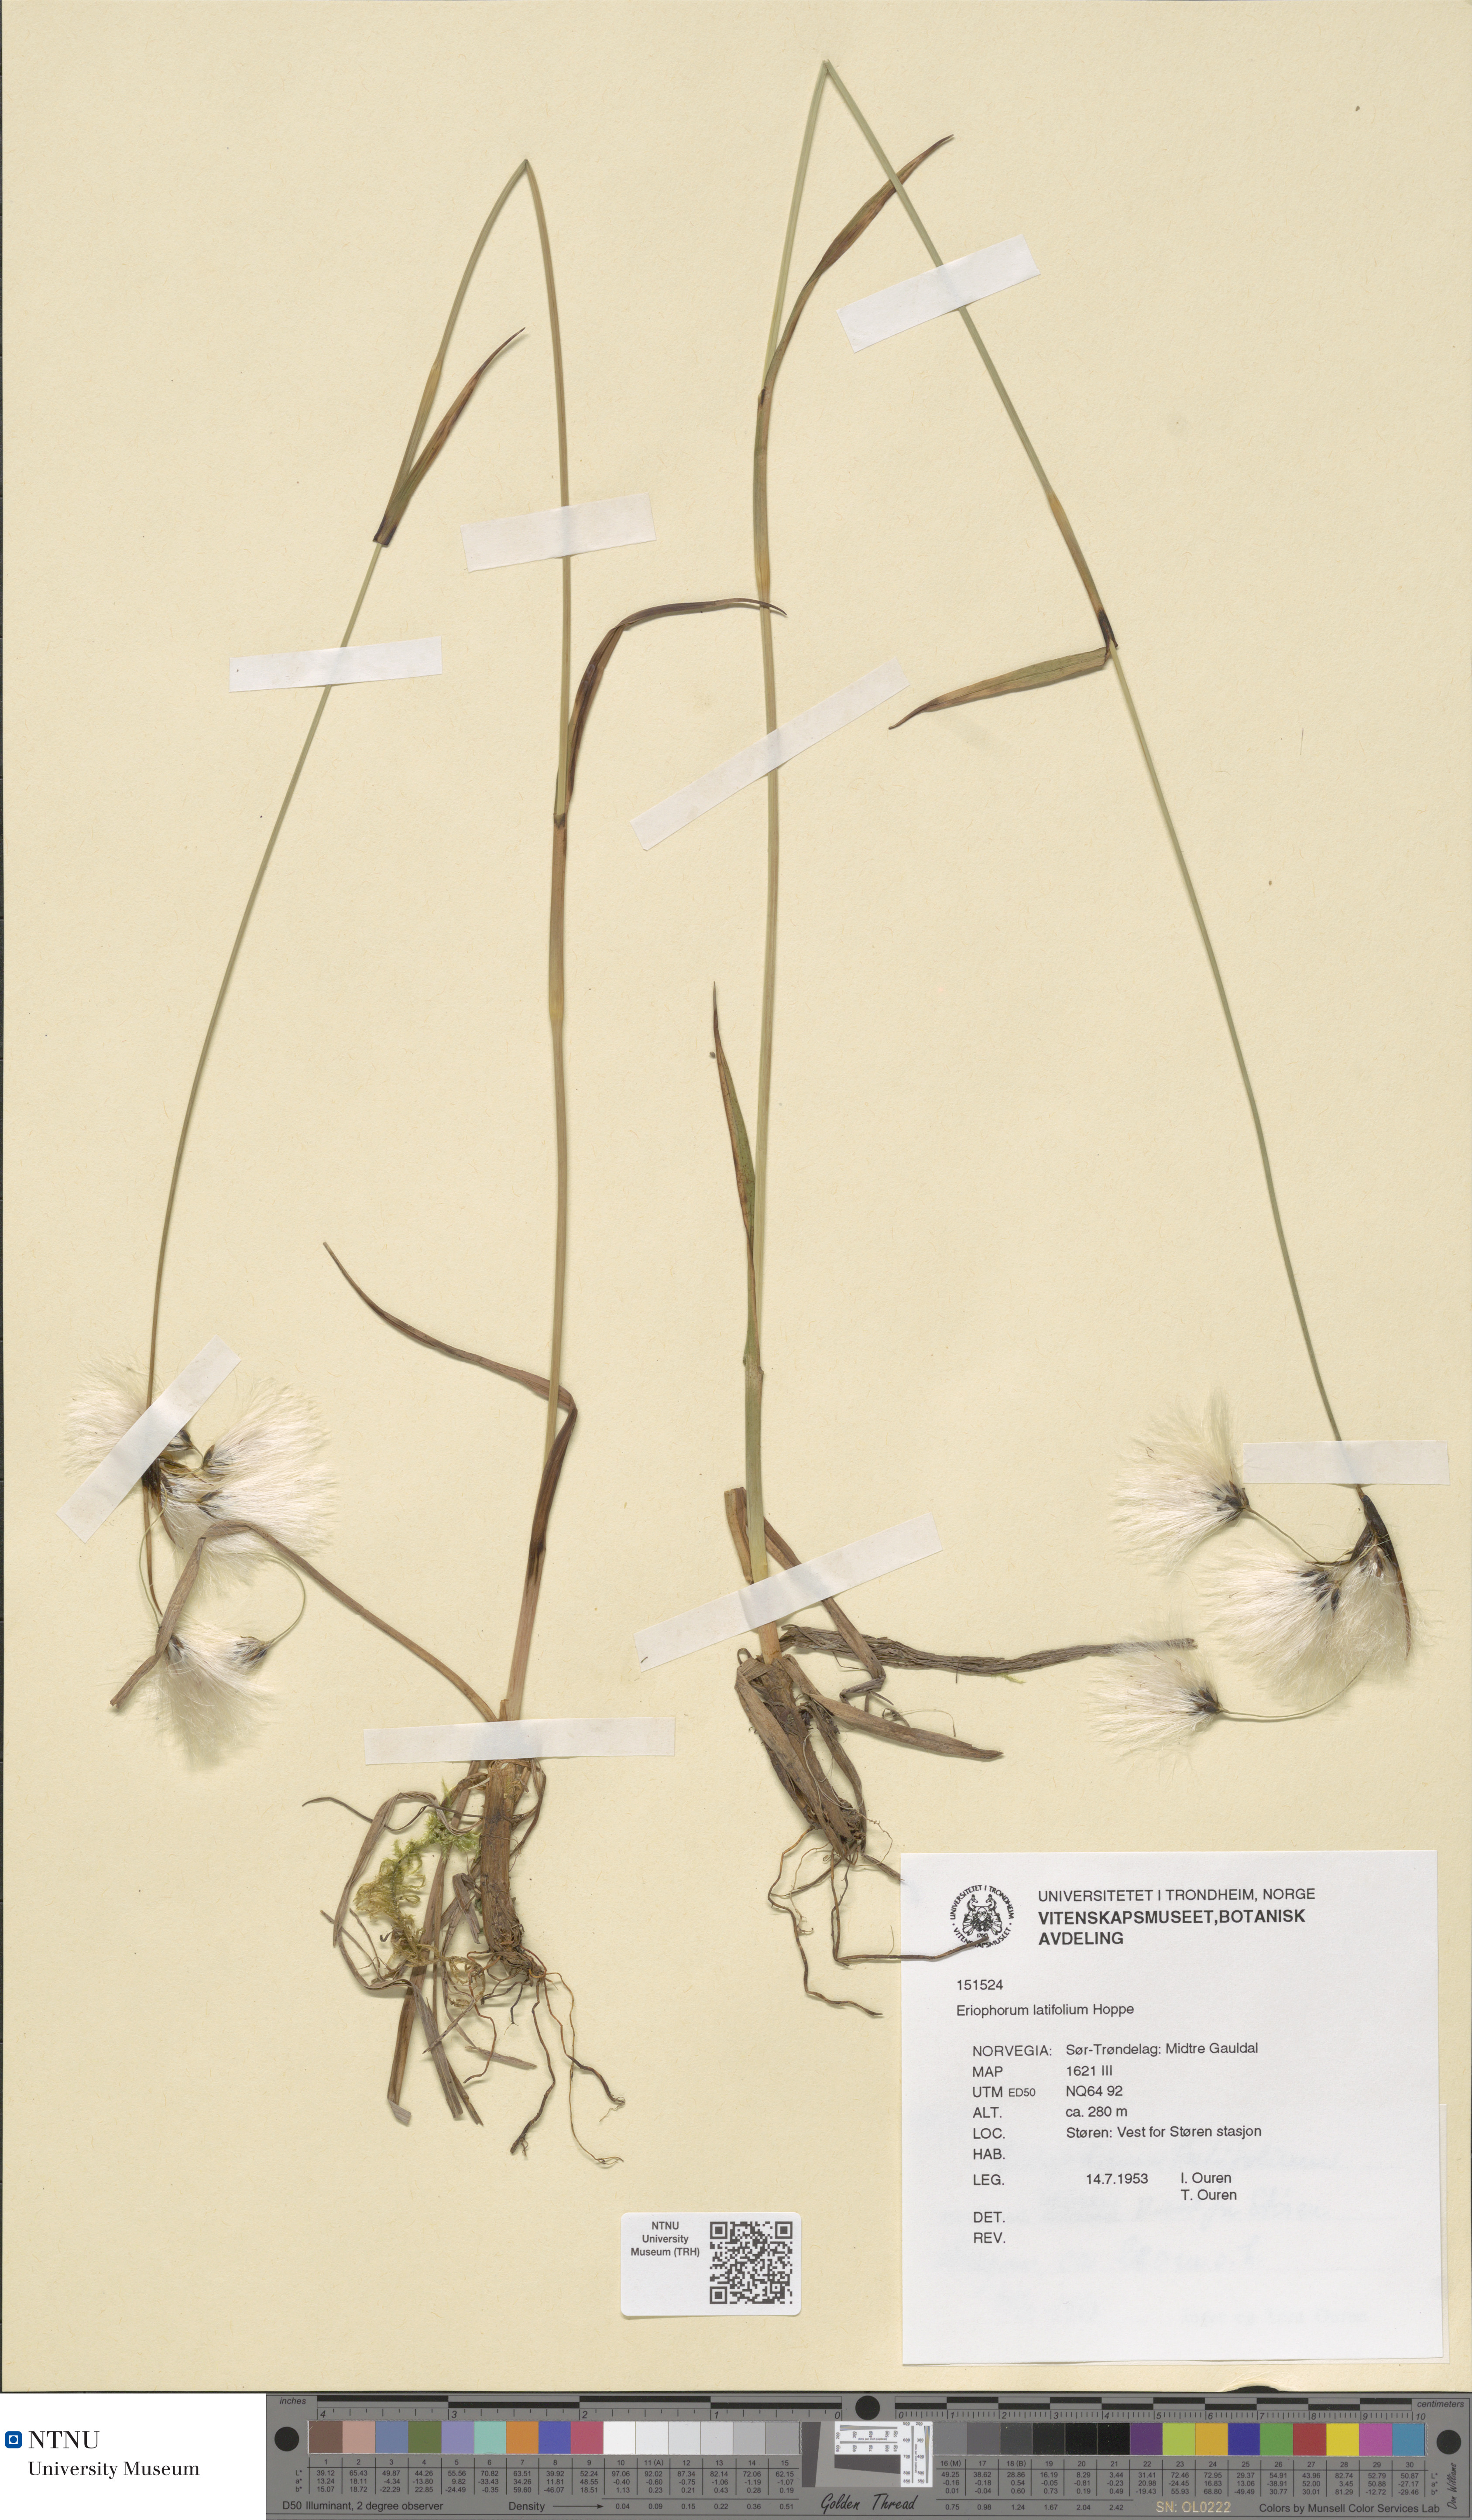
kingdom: Plantae
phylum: Tracheophyta
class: Liliopsida
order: Poales
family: Cyperaceae
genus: Eriophorum
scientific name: Eriophorum latifolium
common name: Broad-leaved cottongrass
